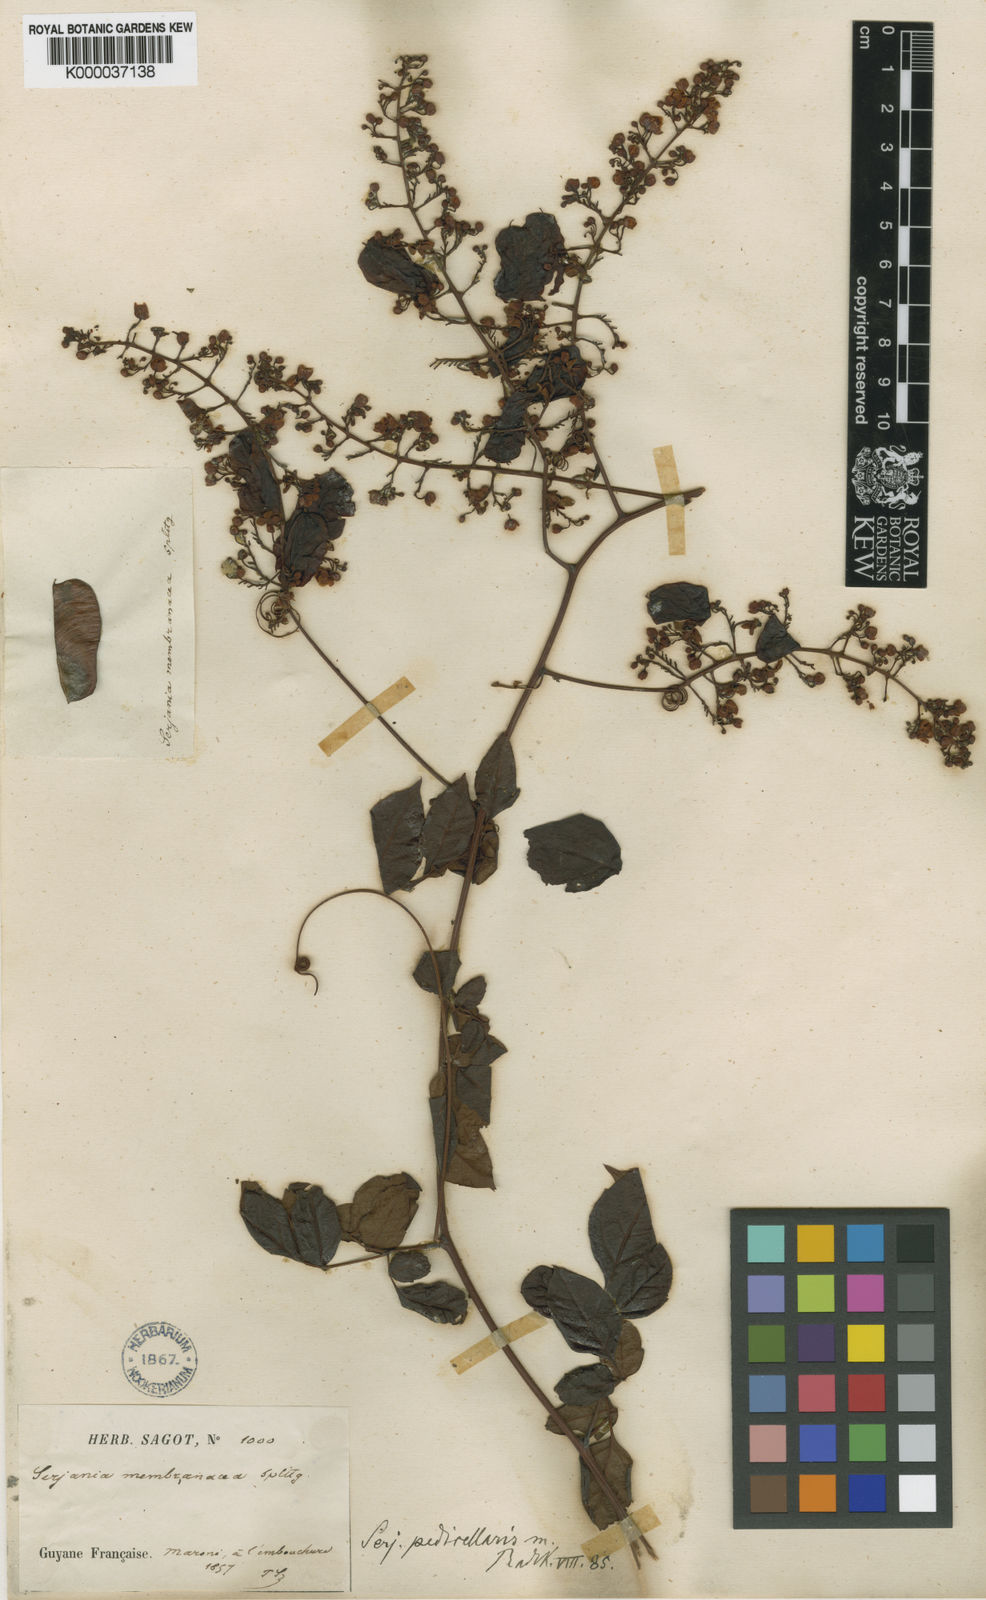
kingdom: Plantae
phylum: Tracheophyta
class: Magnoliopsida
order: Sapindales
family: Sapindaceae
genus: Serjania
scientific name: Serjania pedicellaris
